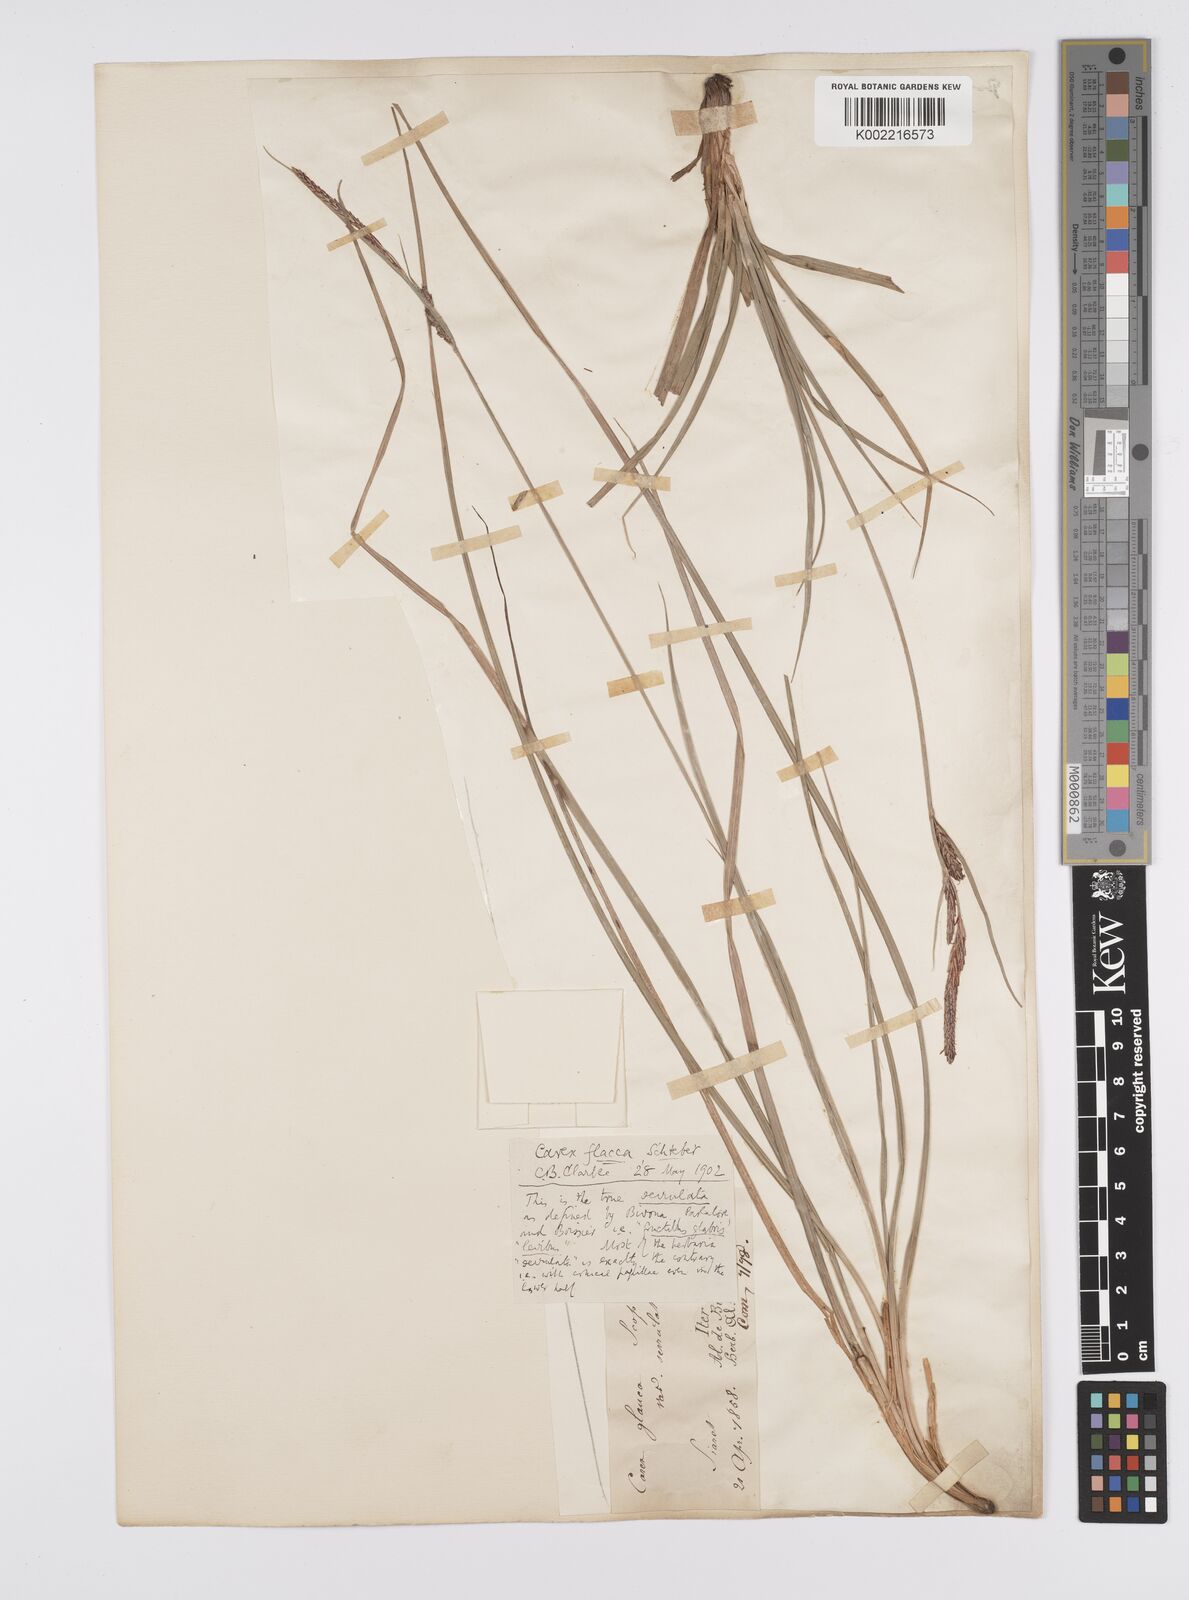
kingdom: Plantae
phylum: Tracheophyta
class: Liliopsida
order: Poales
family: Cyperaceae
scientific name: Cyperaceae
